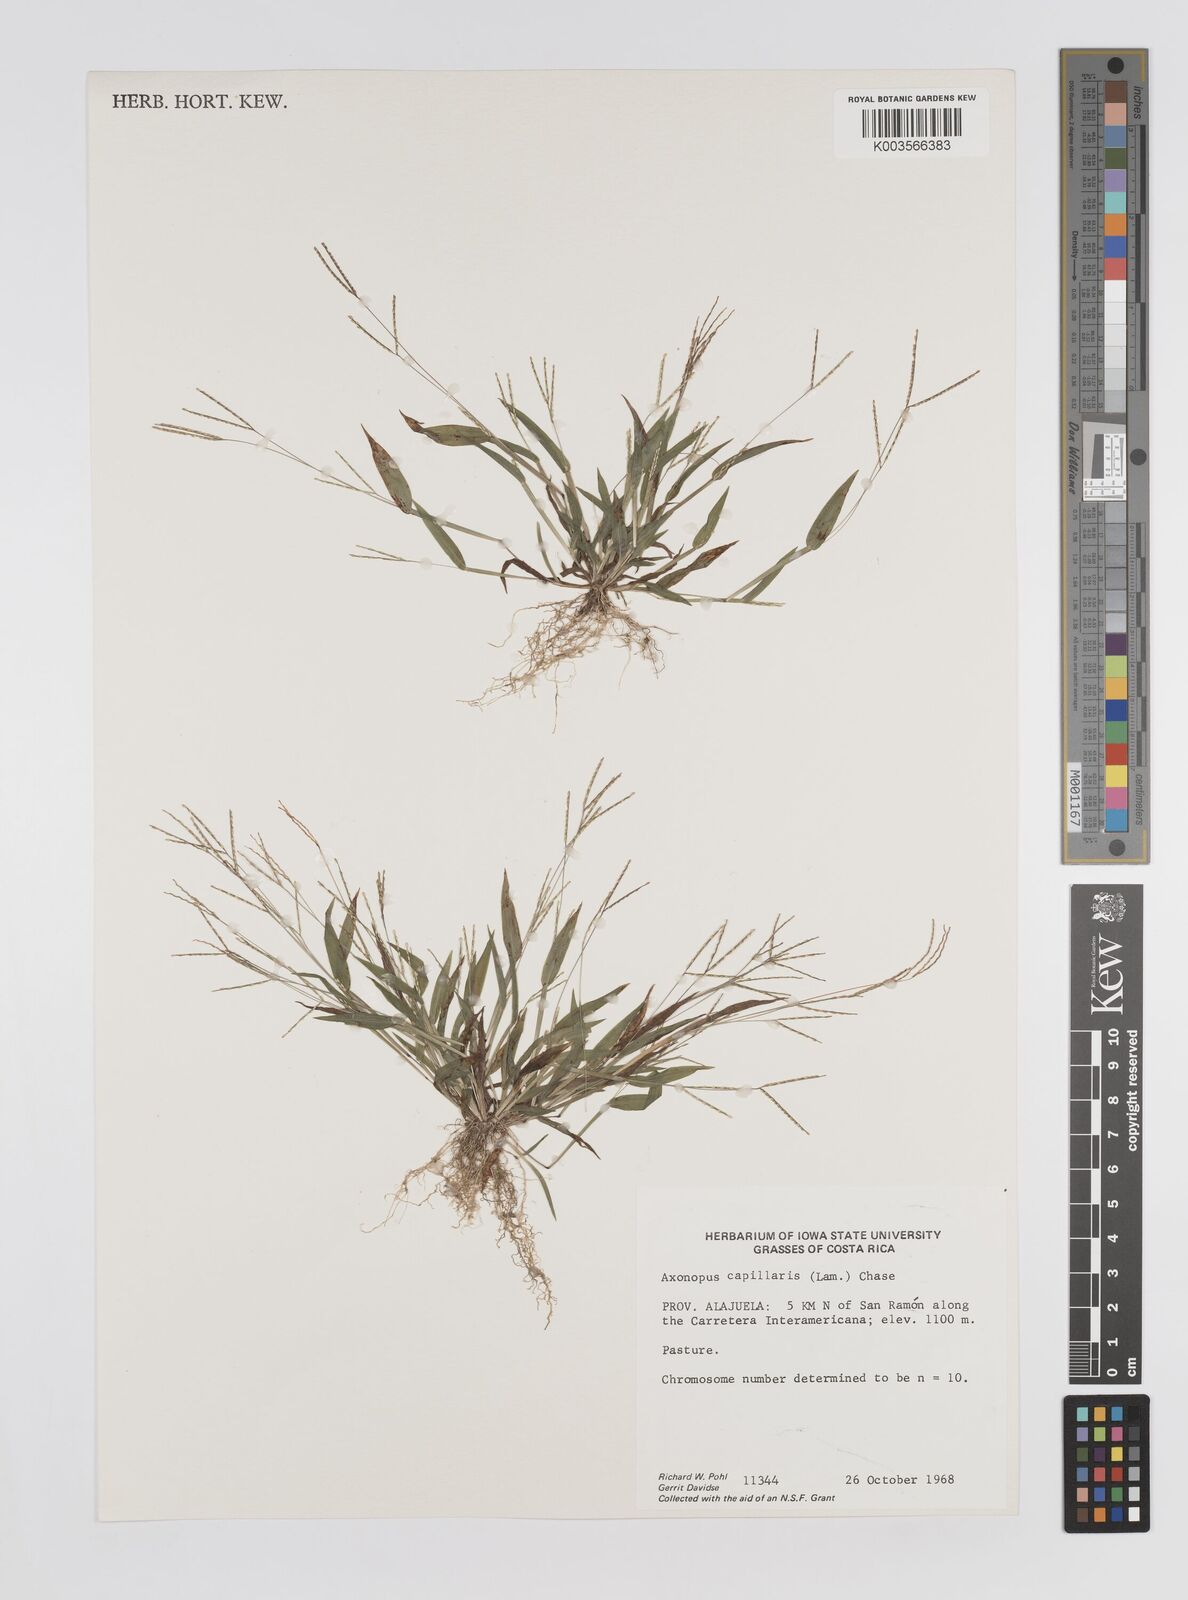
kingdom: Plantae
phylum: Tracheophyta
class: Liliopsida
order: Poales
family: Poaceae
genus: Axonopus
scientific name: Axonopus capillaris
